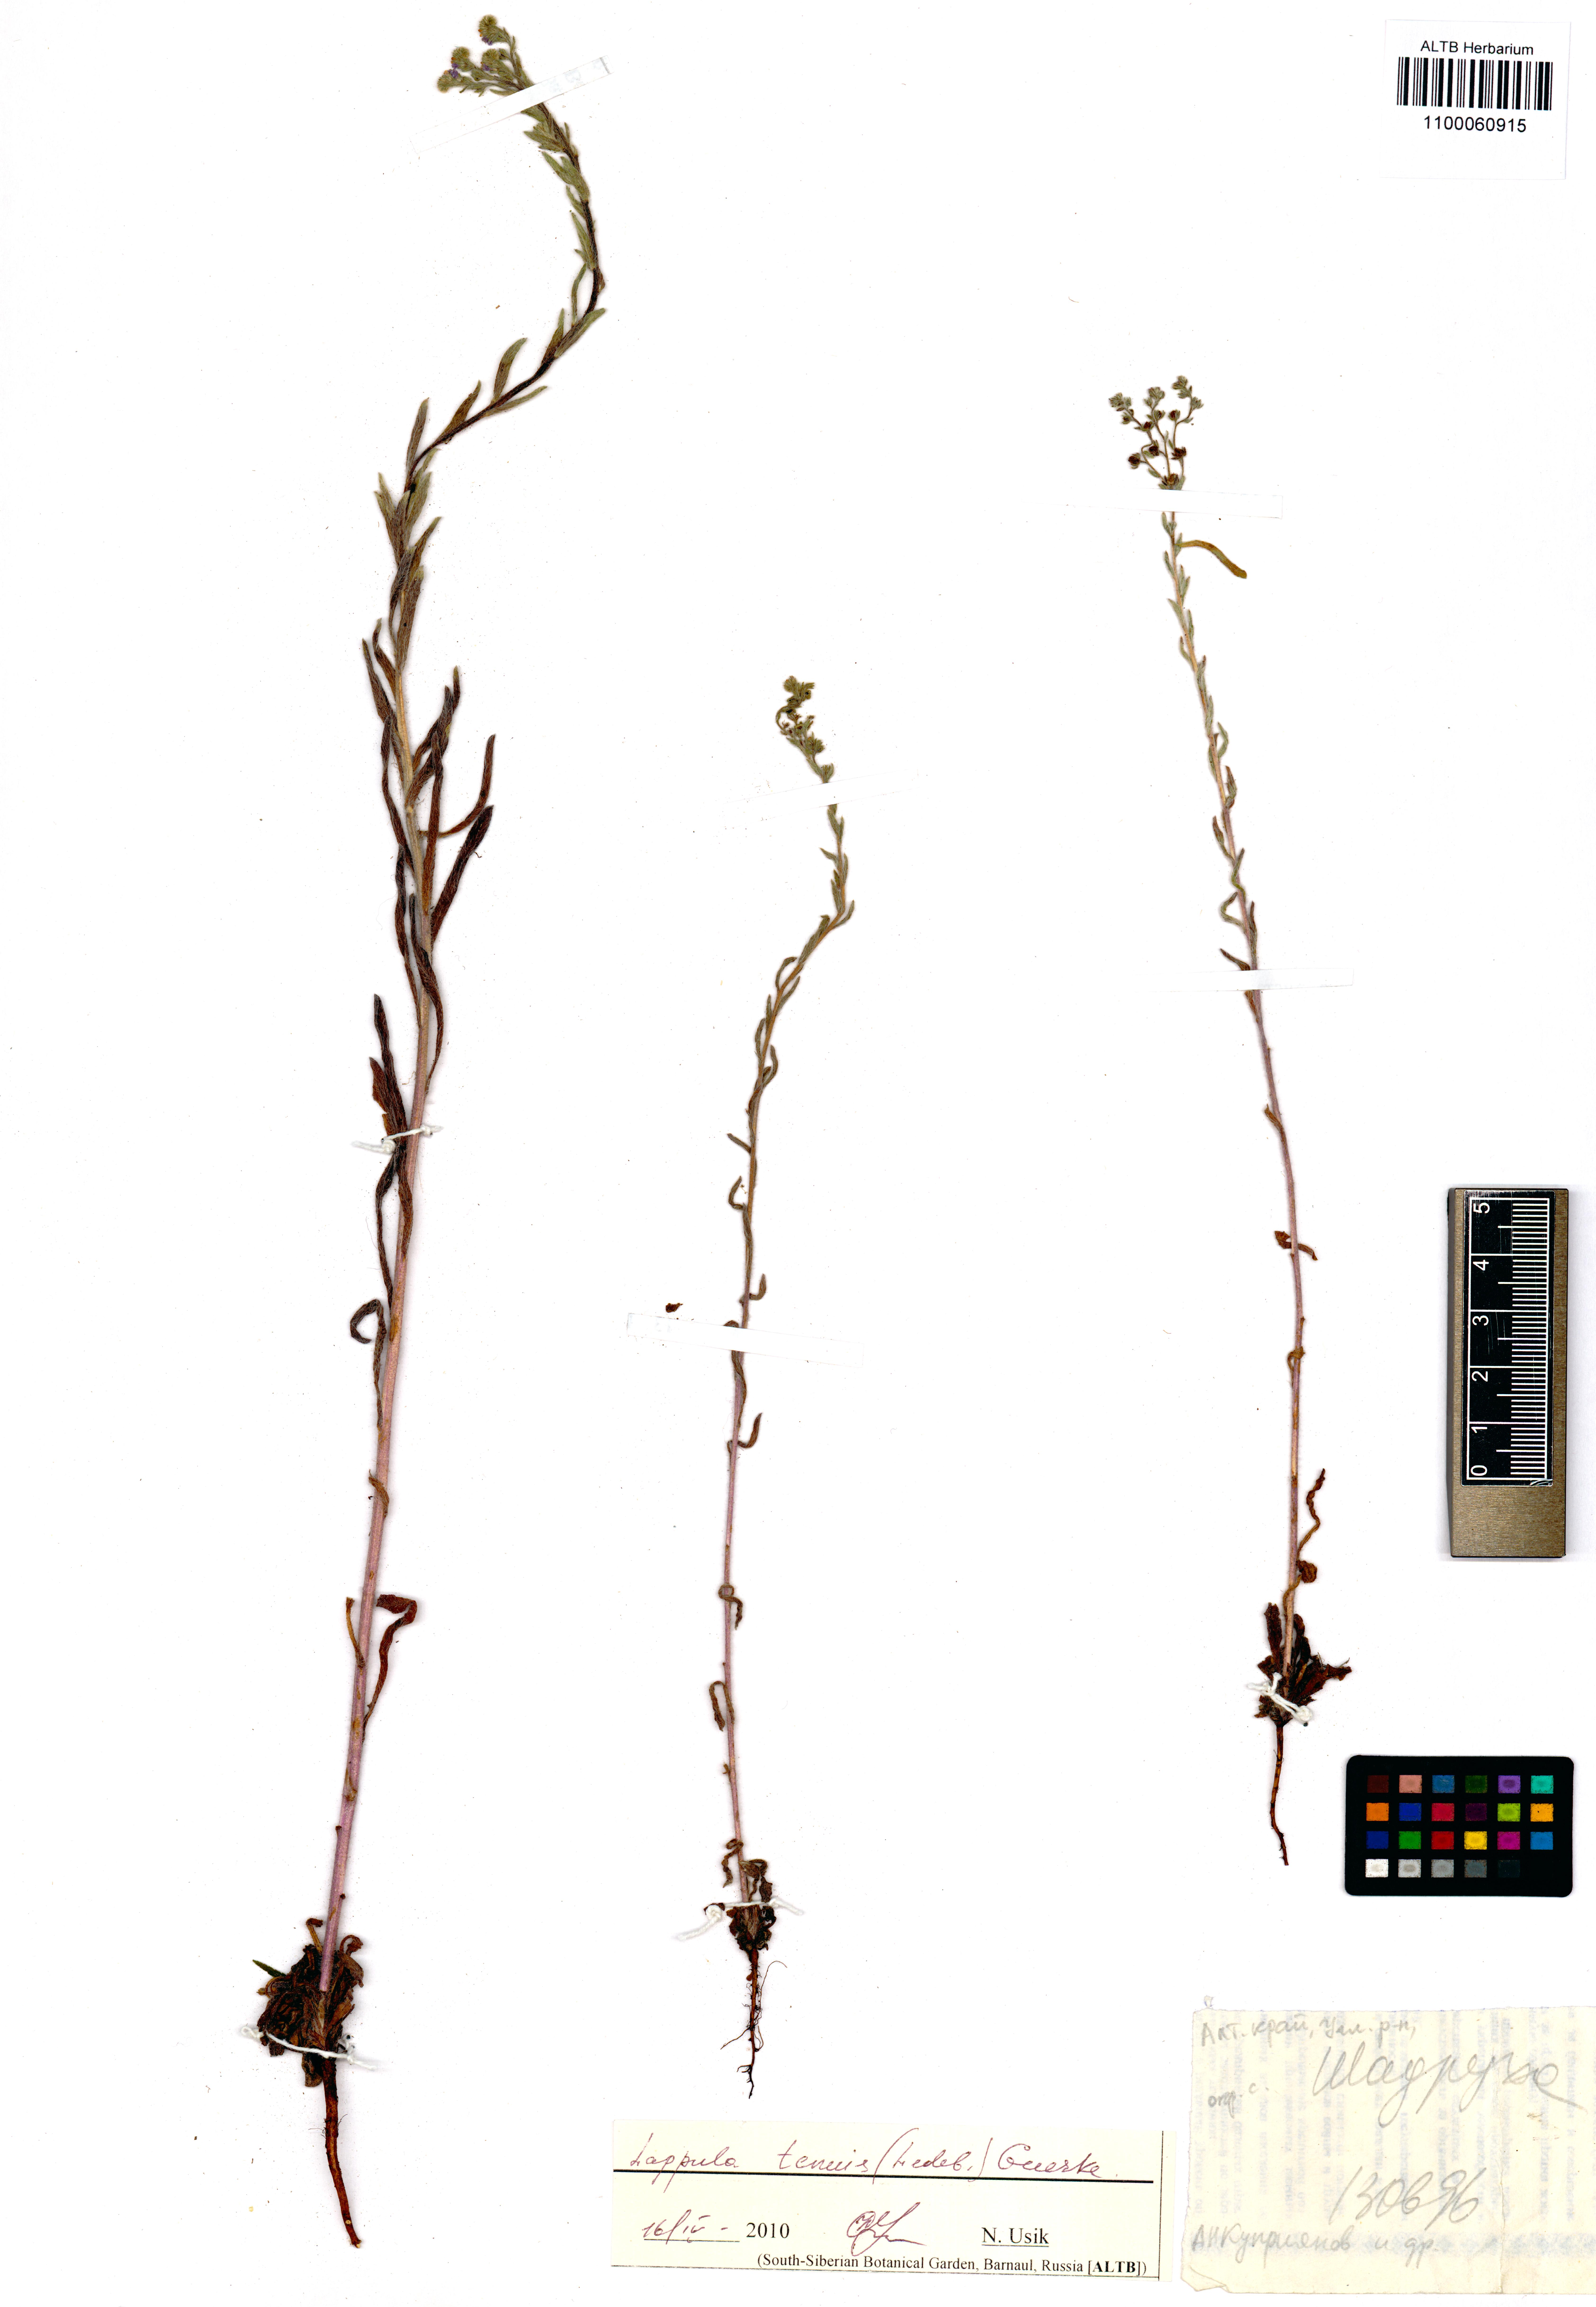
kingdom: Plantae
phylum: Tracheophyta
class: Magnoliopsida
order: Boraginales
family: Boraginaceae
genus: Lappula
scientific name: Lappula tenuis
